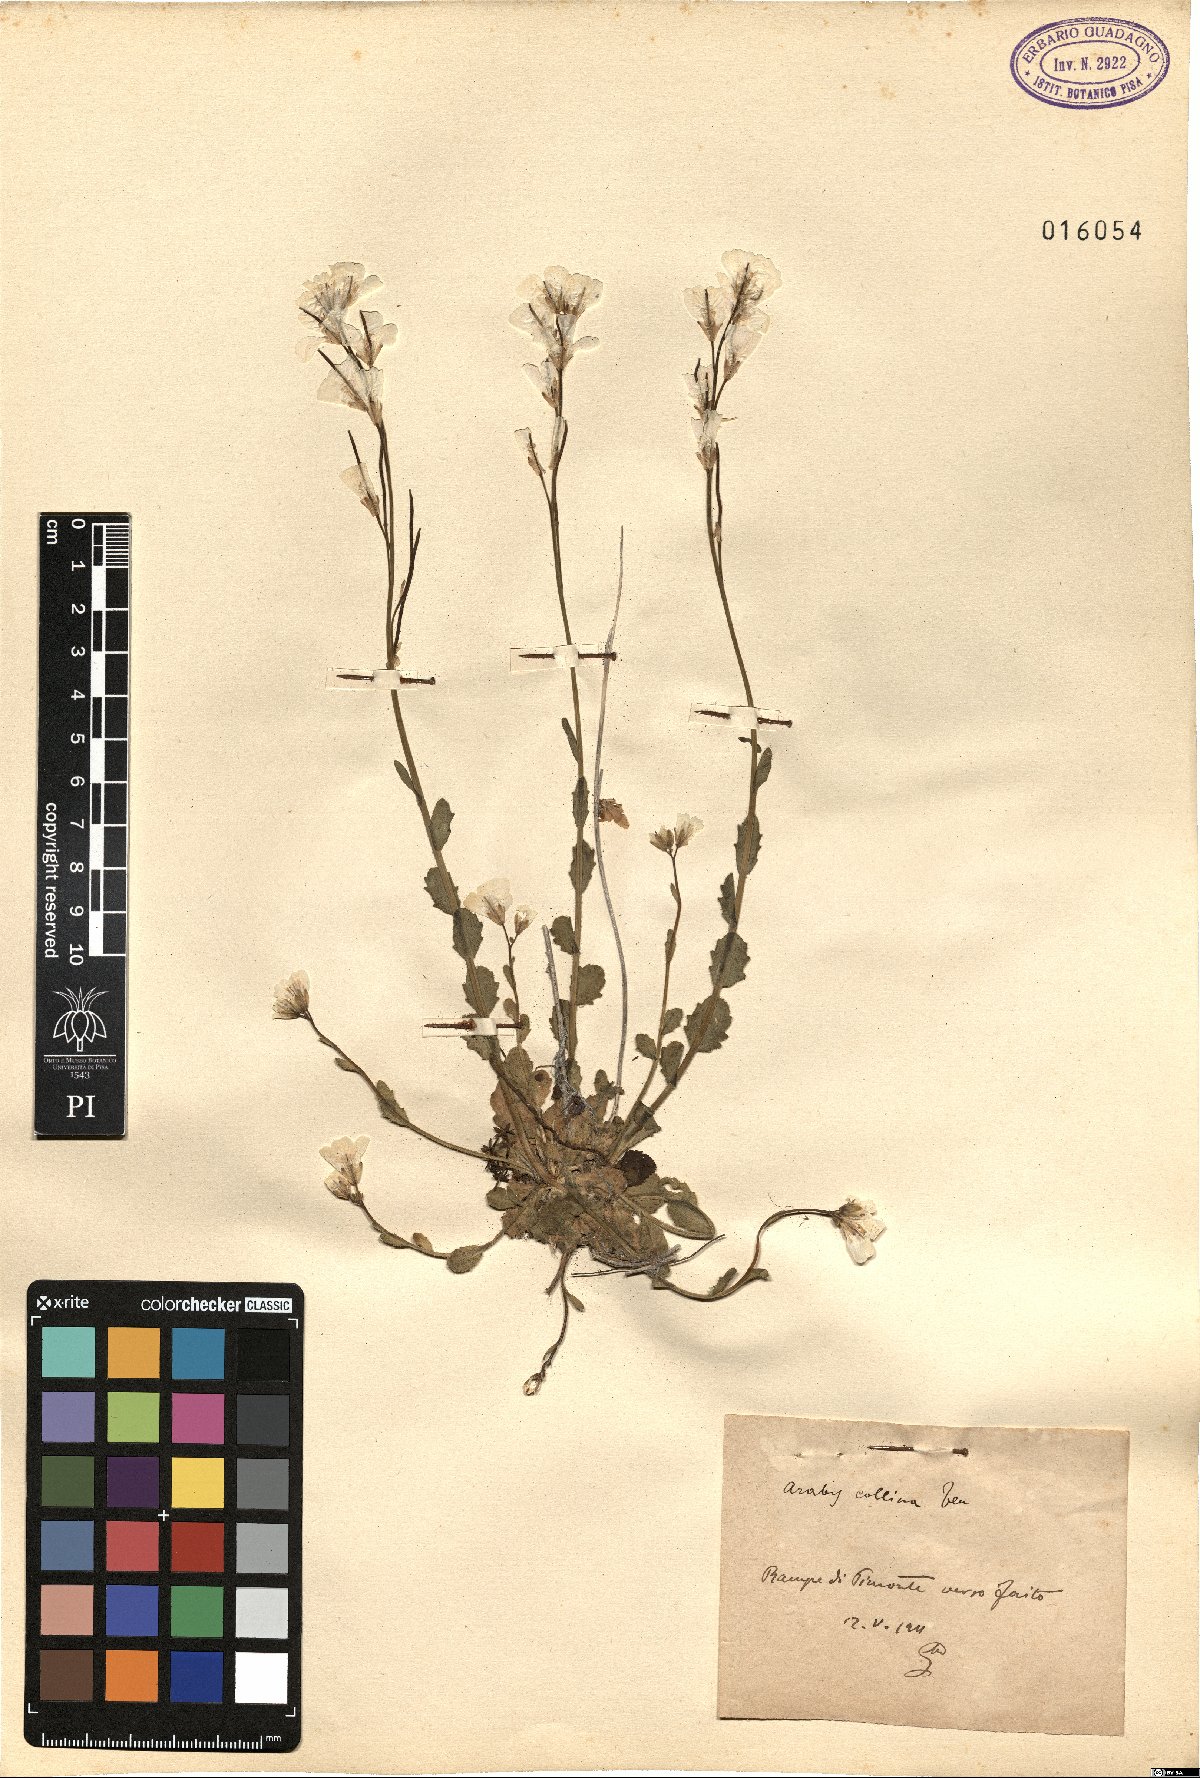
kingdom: Plantae
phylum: Tracheophyta
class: Magnoliopsida
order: Brassicales
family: Brassicaceae
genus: Arabis
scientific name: Arabis collina
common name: Rosy cress
